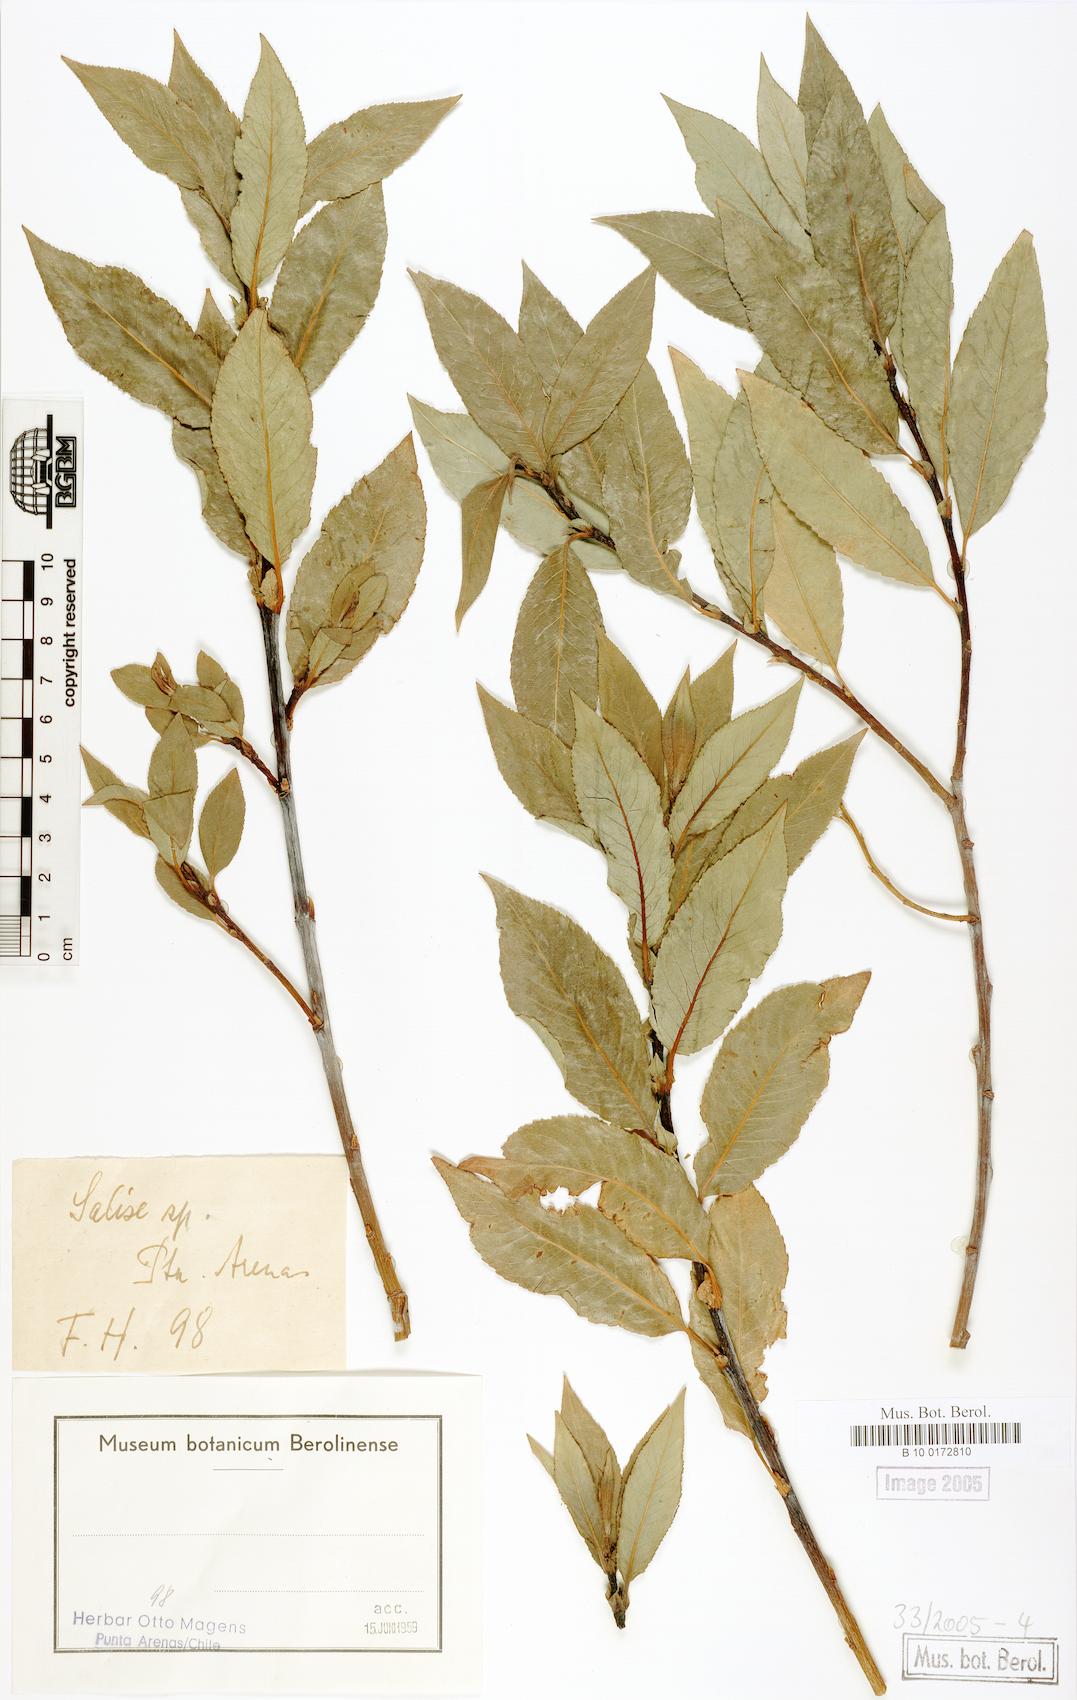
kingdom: Plantae
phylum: Tracheophyta
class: Magnoliopsida
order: Malpighiales
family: Salicaceae
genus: Salix
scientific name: Salix daphnoides
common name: European violet-willow
